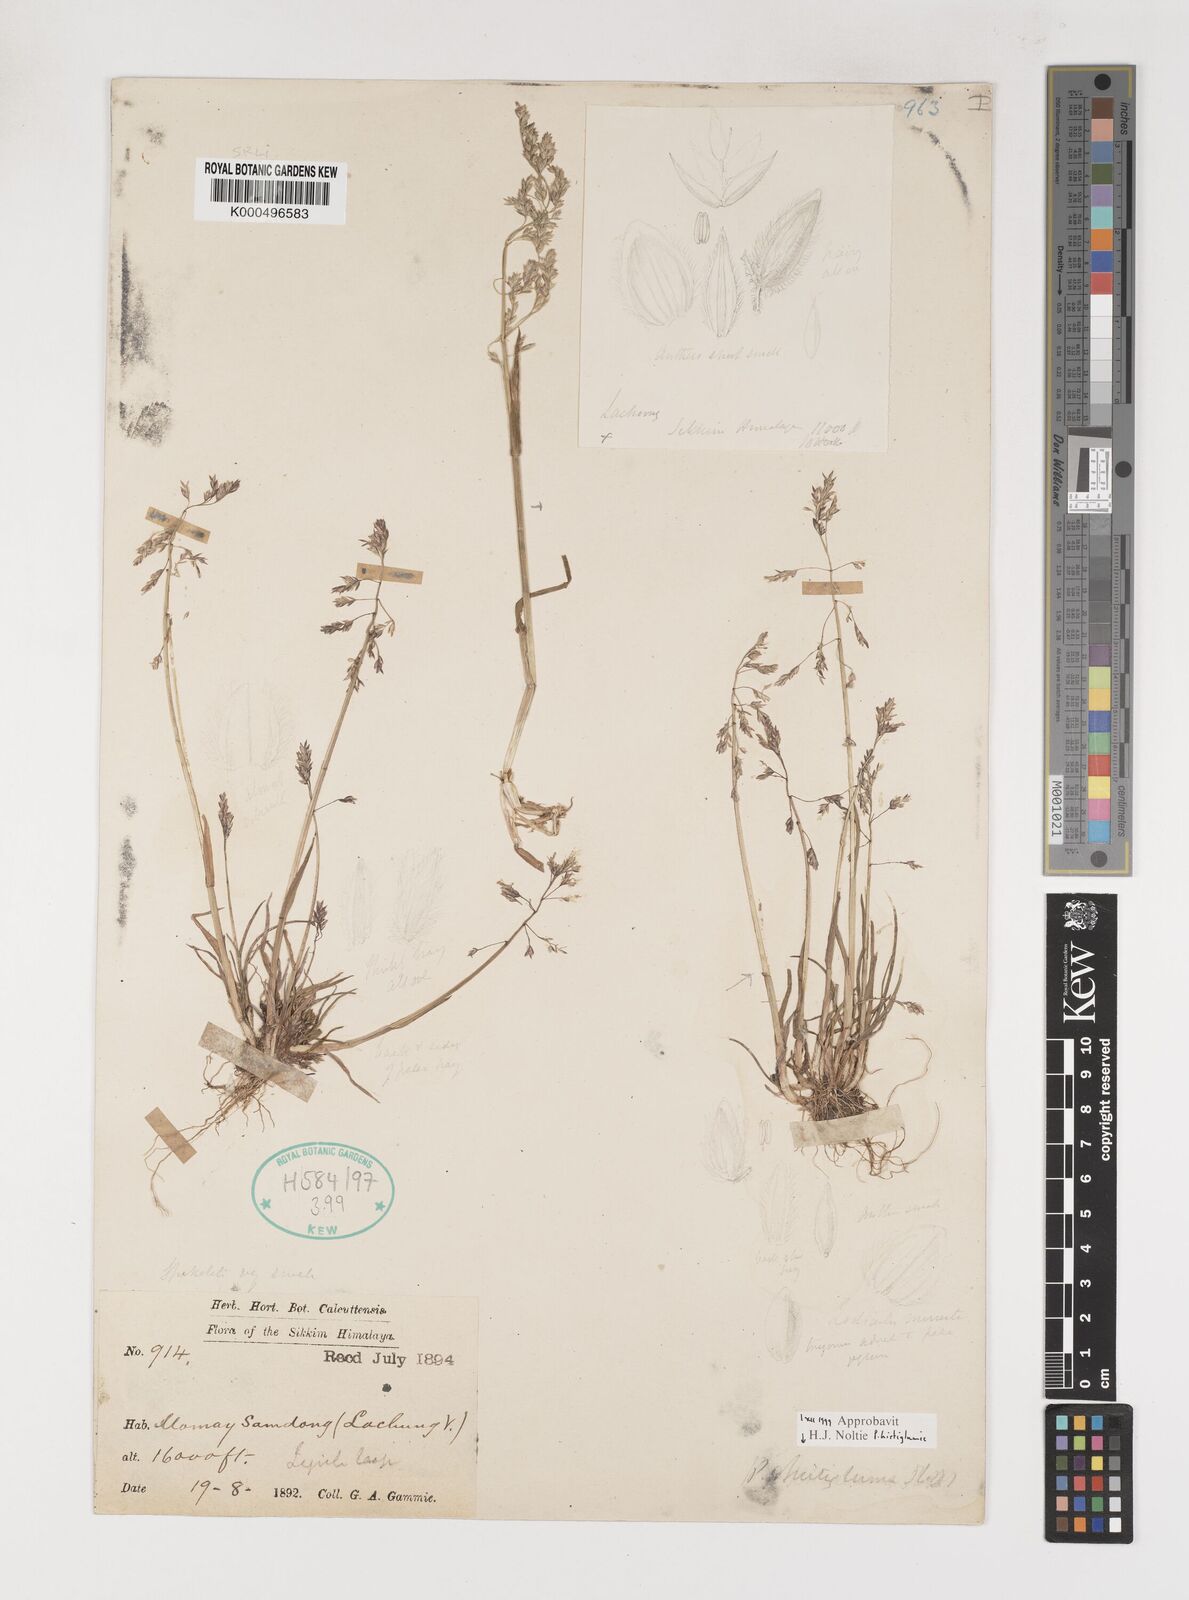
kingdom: Plantae
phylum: Tracheophyta
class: Liliopsida
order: Poales
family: Poaceae
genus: Poa
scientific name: Poa hirtiglumis
